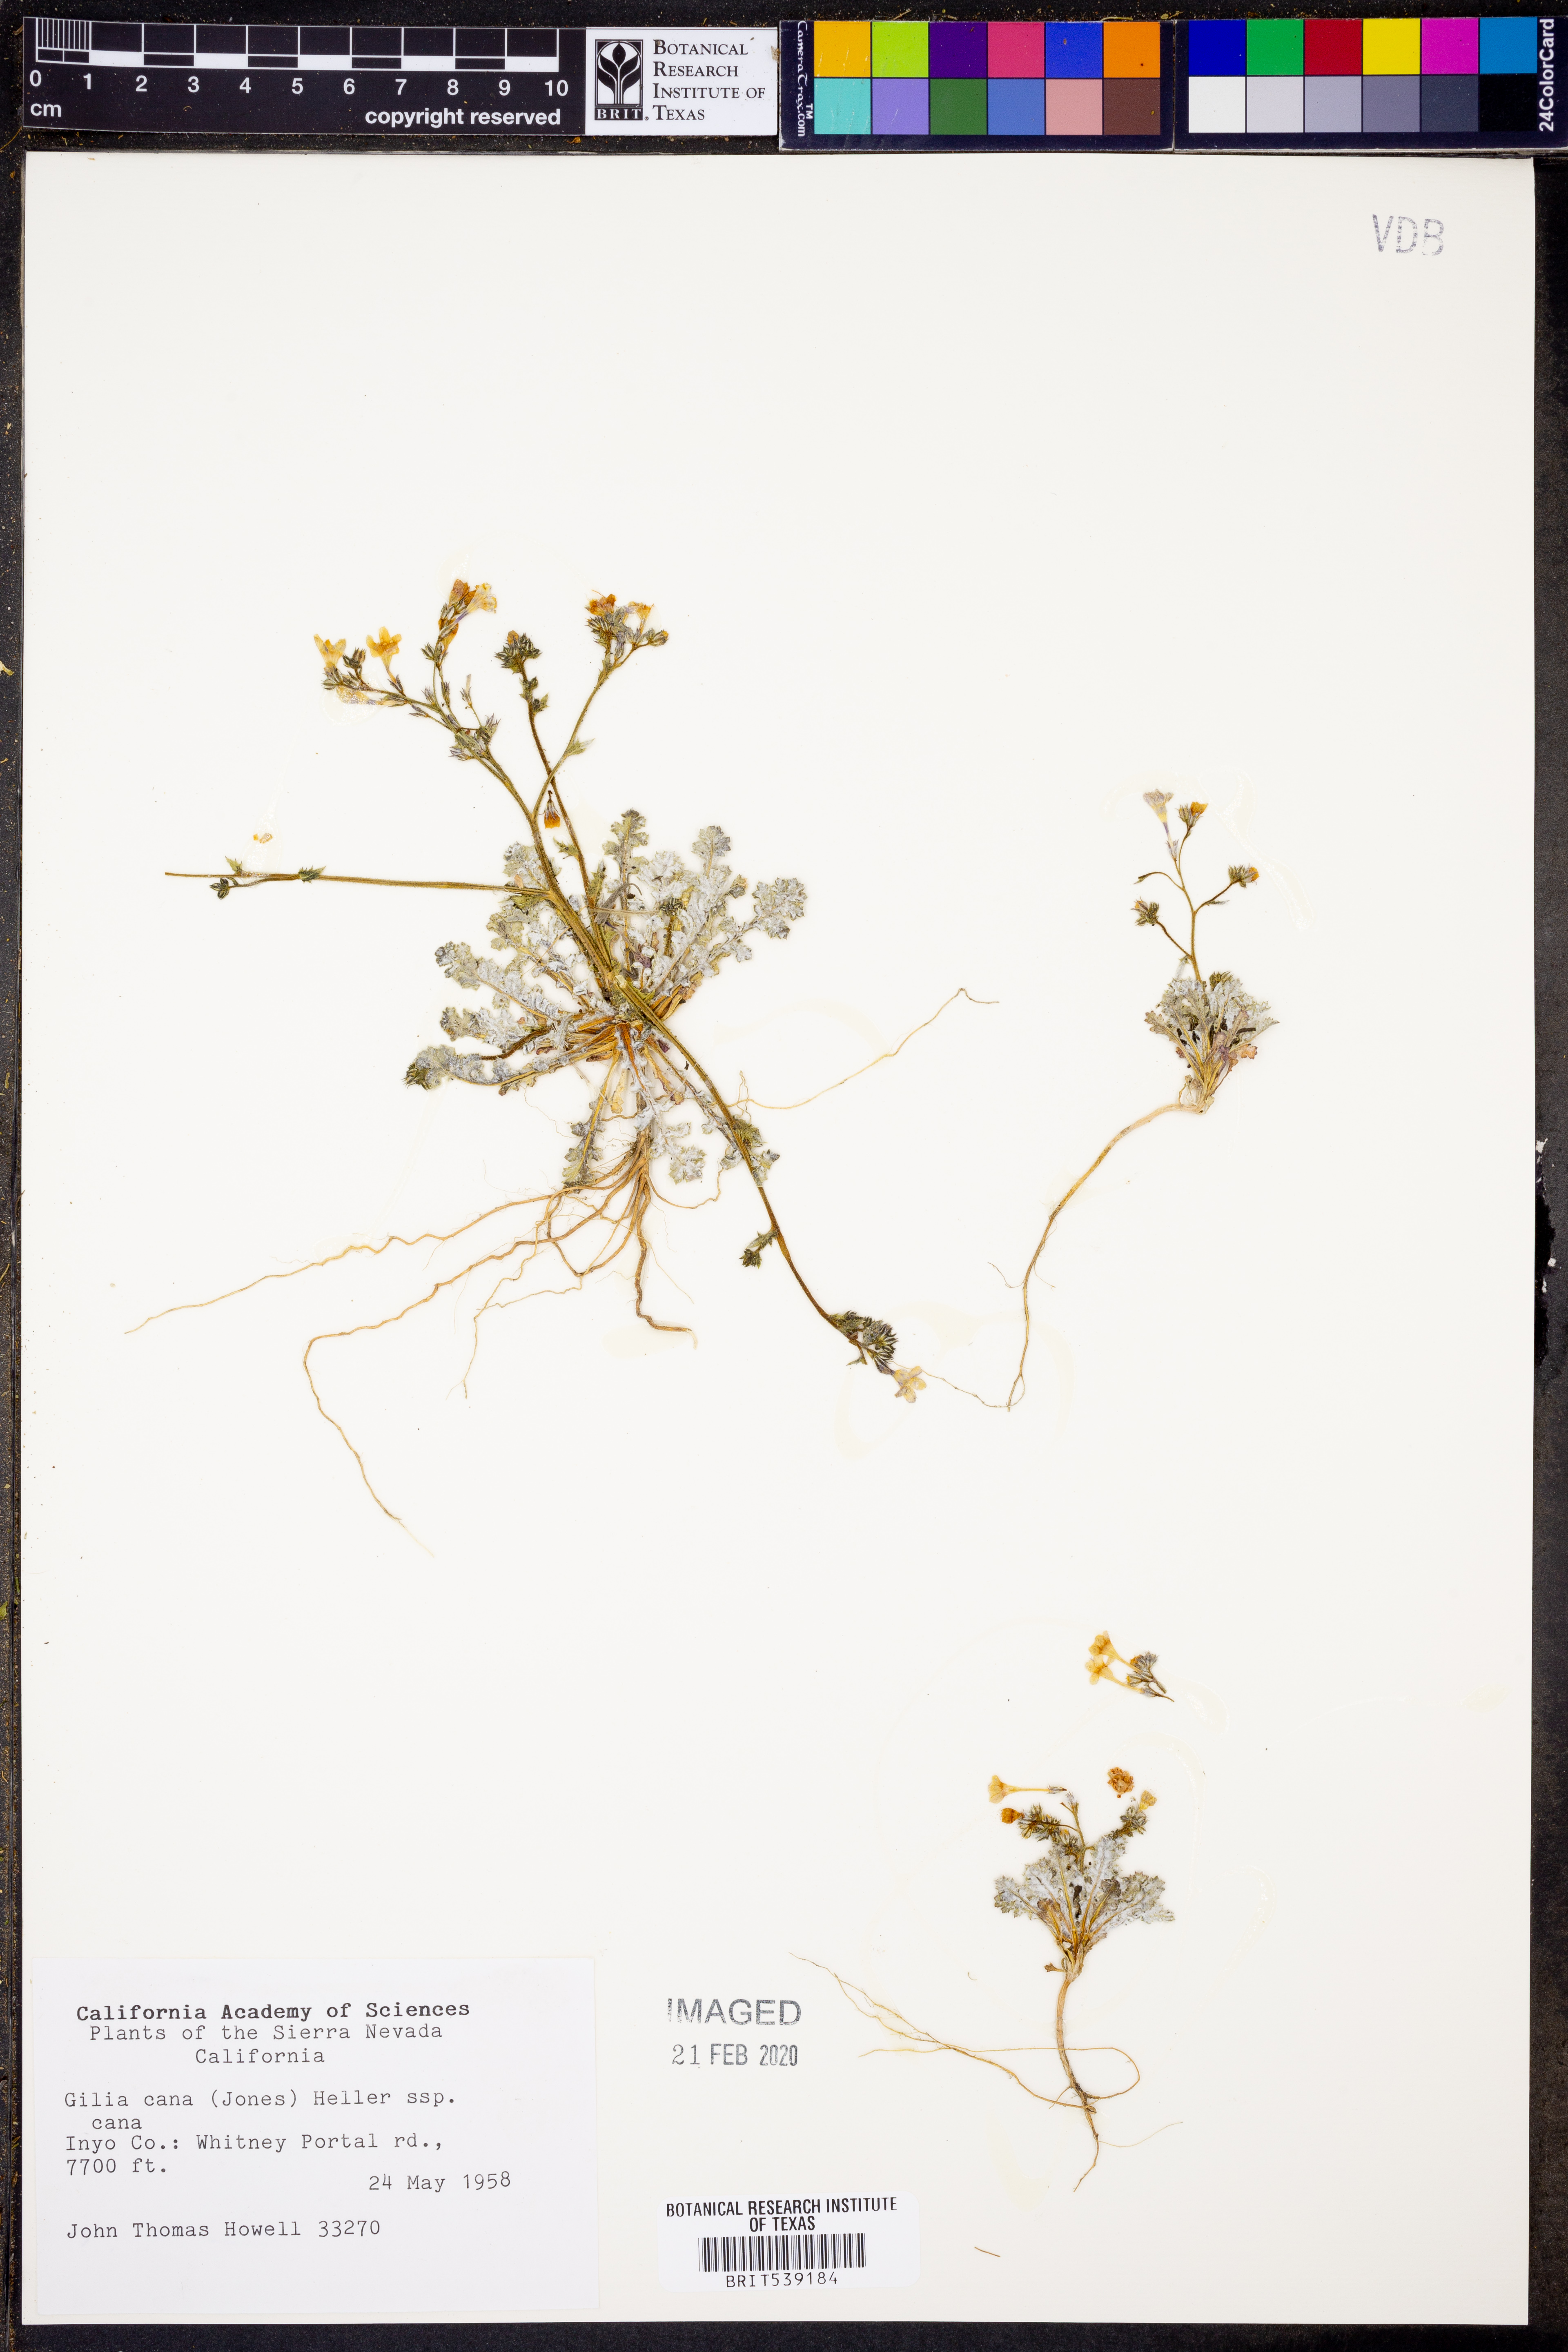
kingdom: Plantae
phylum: Tracheophyta
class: Magnoliopsida
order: Ericales
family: Polemoniaceae
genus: Gilia
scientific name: Gilia cana
